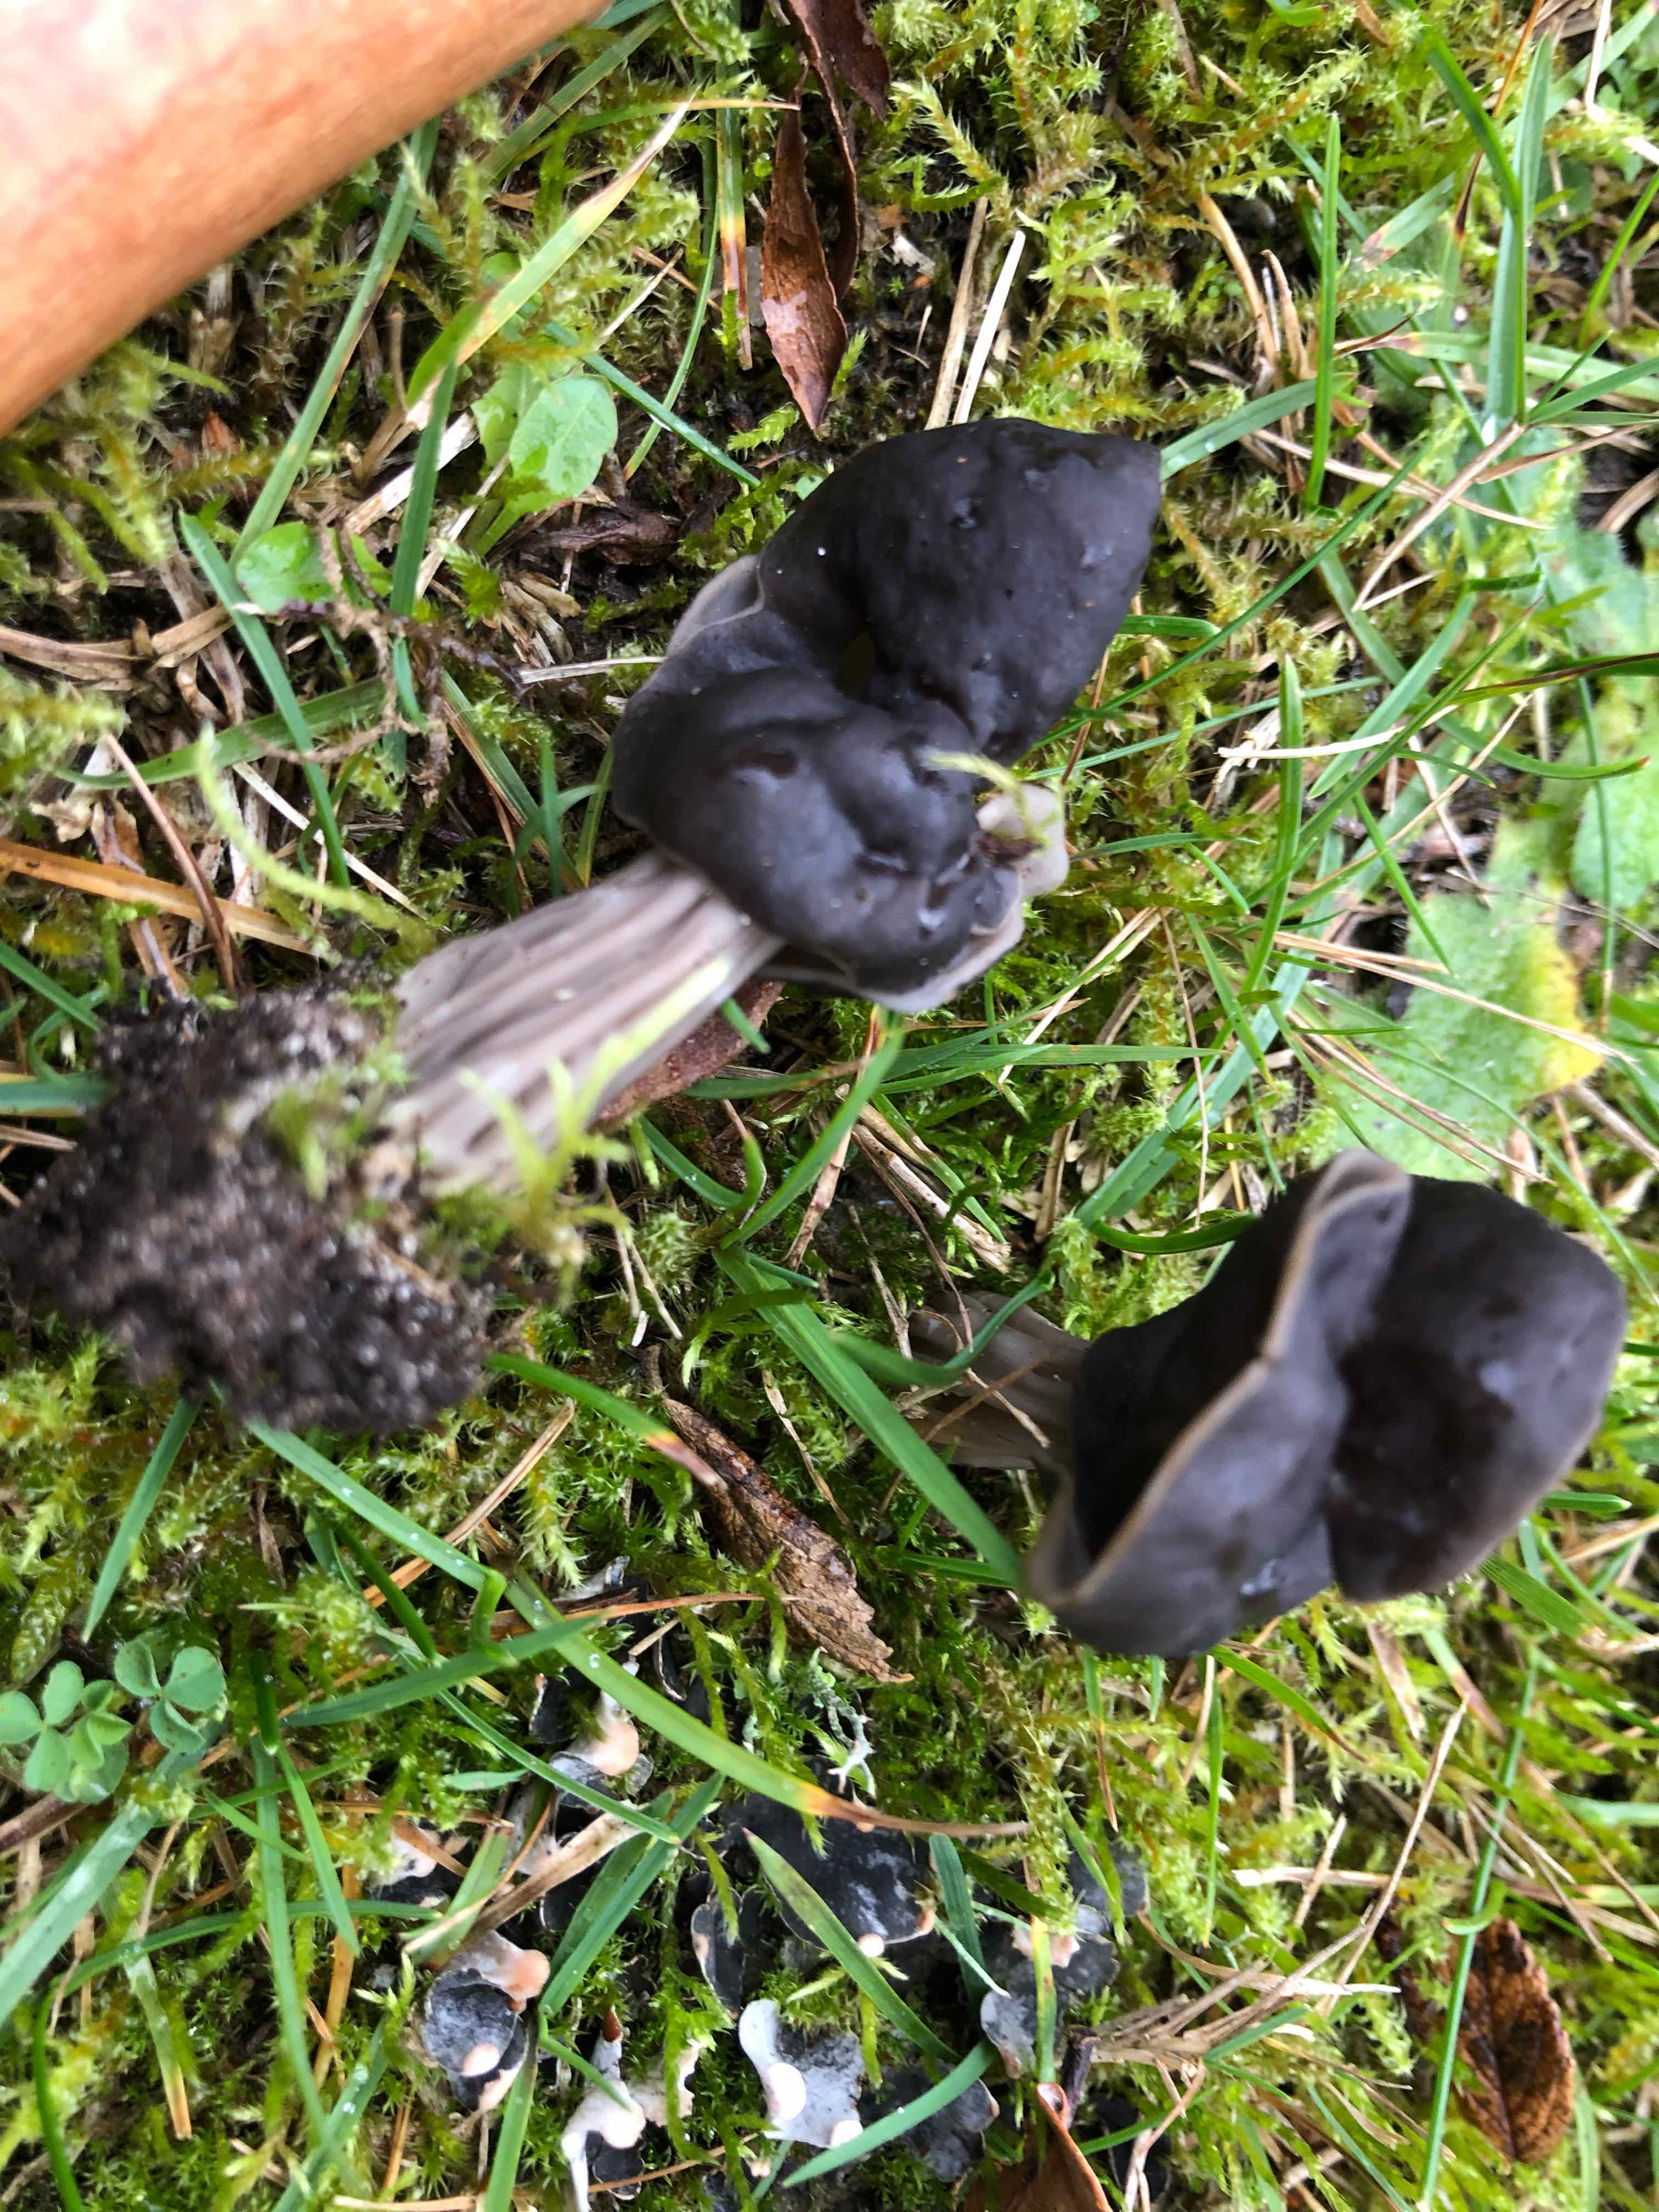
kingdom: Fungi
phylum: Ascomycota
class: Pezizomycetes
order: Pezizales
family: Helvellaceae
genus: Helvella
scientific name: Helvella lacunosa
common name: grubet foldhat
